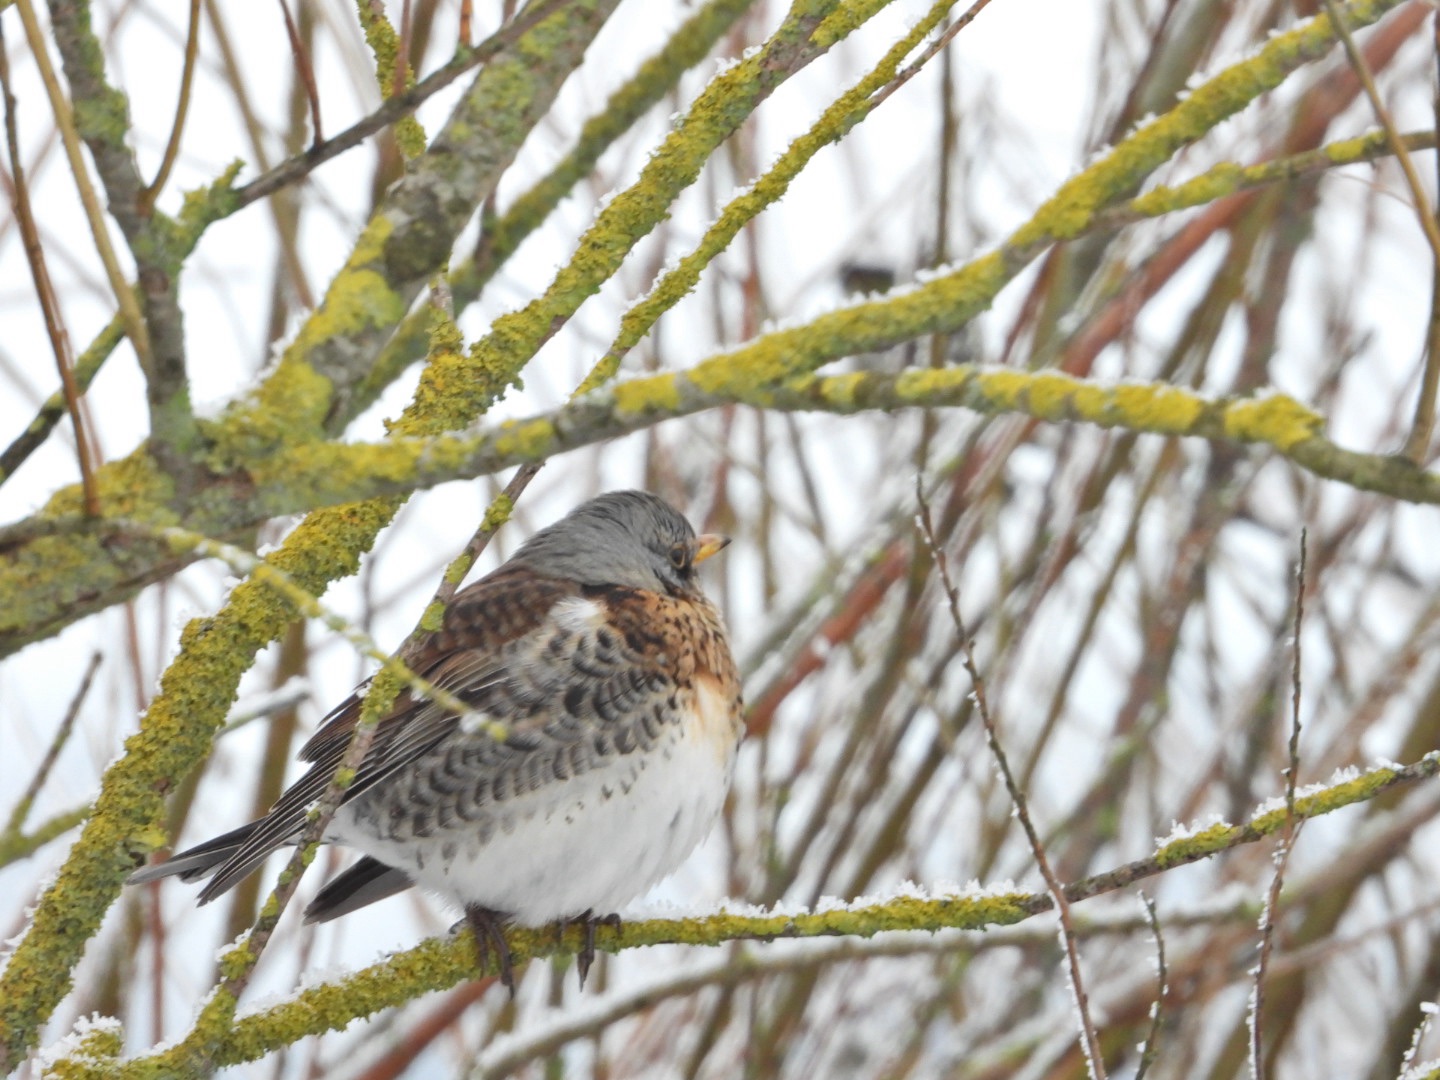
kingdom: Animalia
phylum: Chordata
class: Aves
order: Passeriformes
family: Turdidae
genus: Turdus
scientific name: Turdus pilaris
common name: Sjagger
